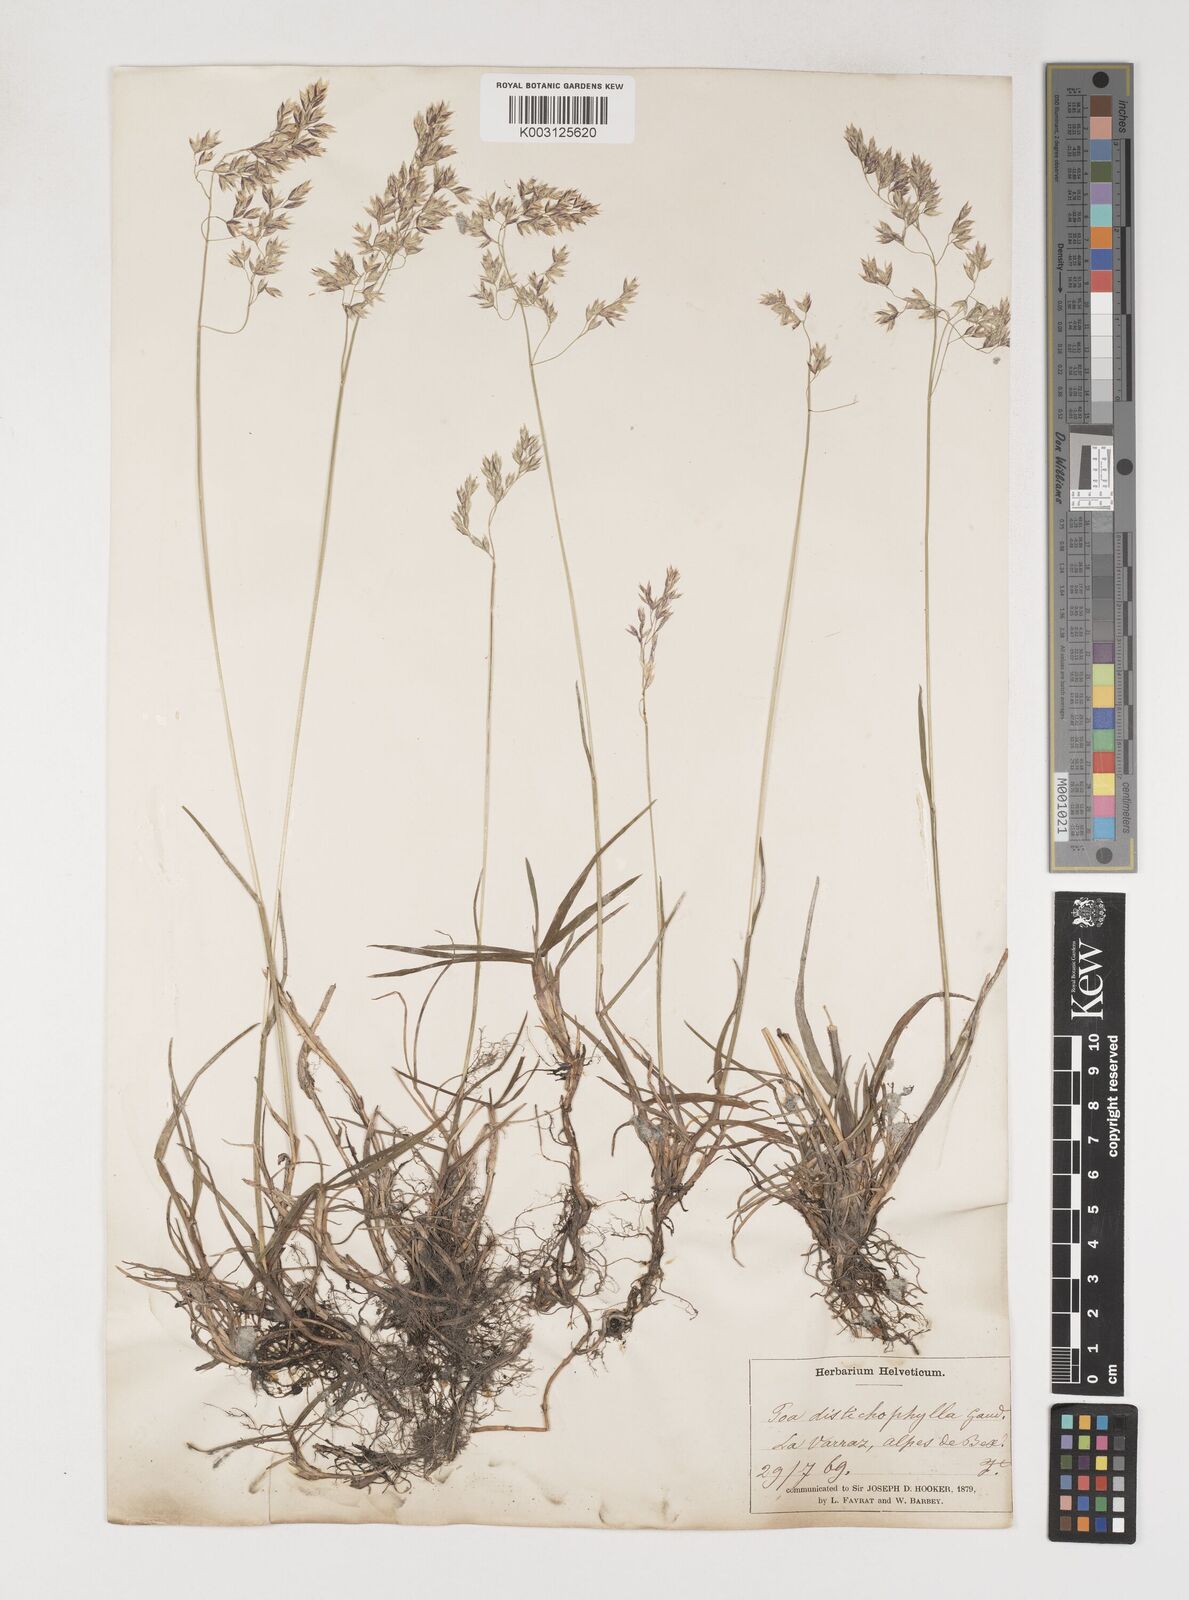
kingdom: Plantae
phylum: Tracheophyta
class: Liliopsida
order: Poales
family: Poaceae
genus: Poa
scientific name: Poa cenisia
